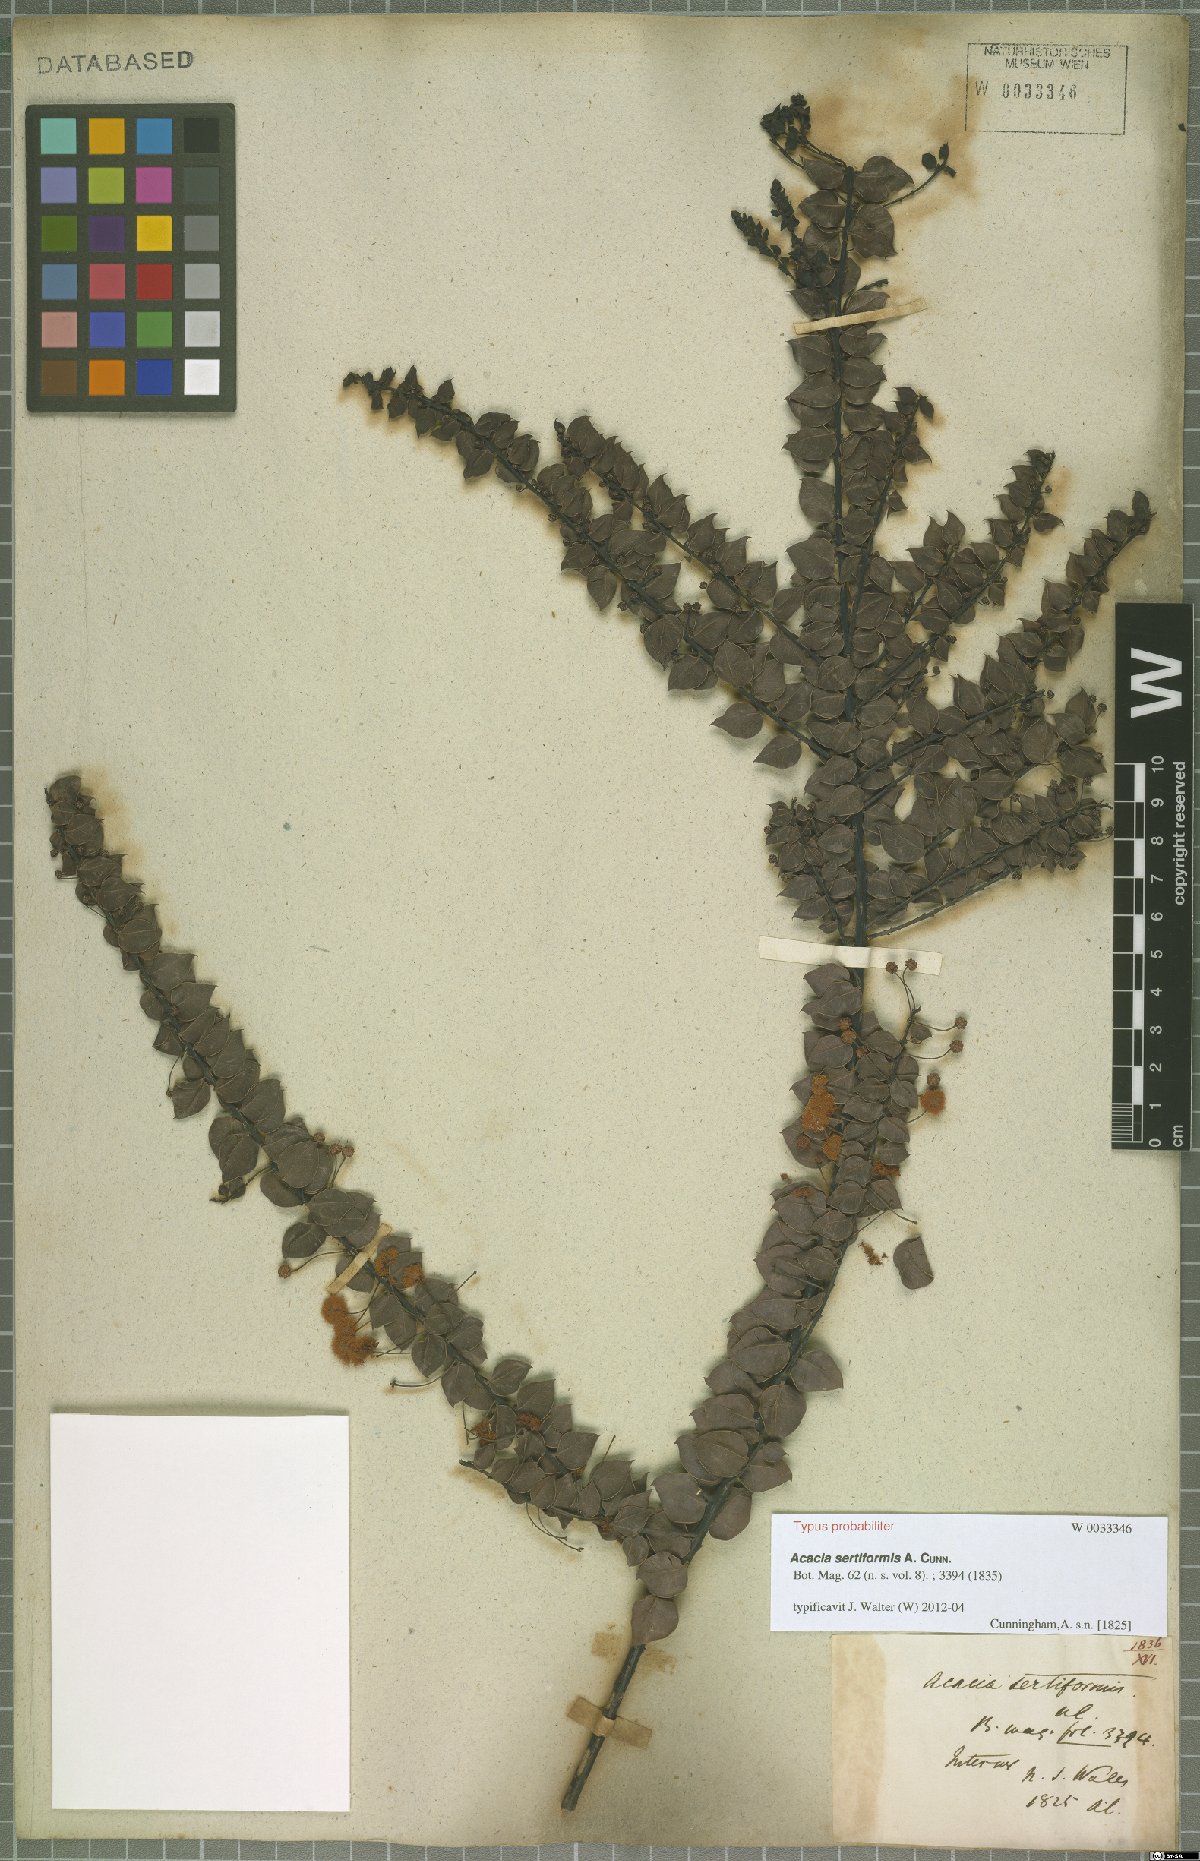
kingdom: Plantae
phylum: Tracheophyta
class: Magnoliopsida
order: Fabales
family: Fabaceae
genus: Acacia
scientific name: Acacia sertiformis
